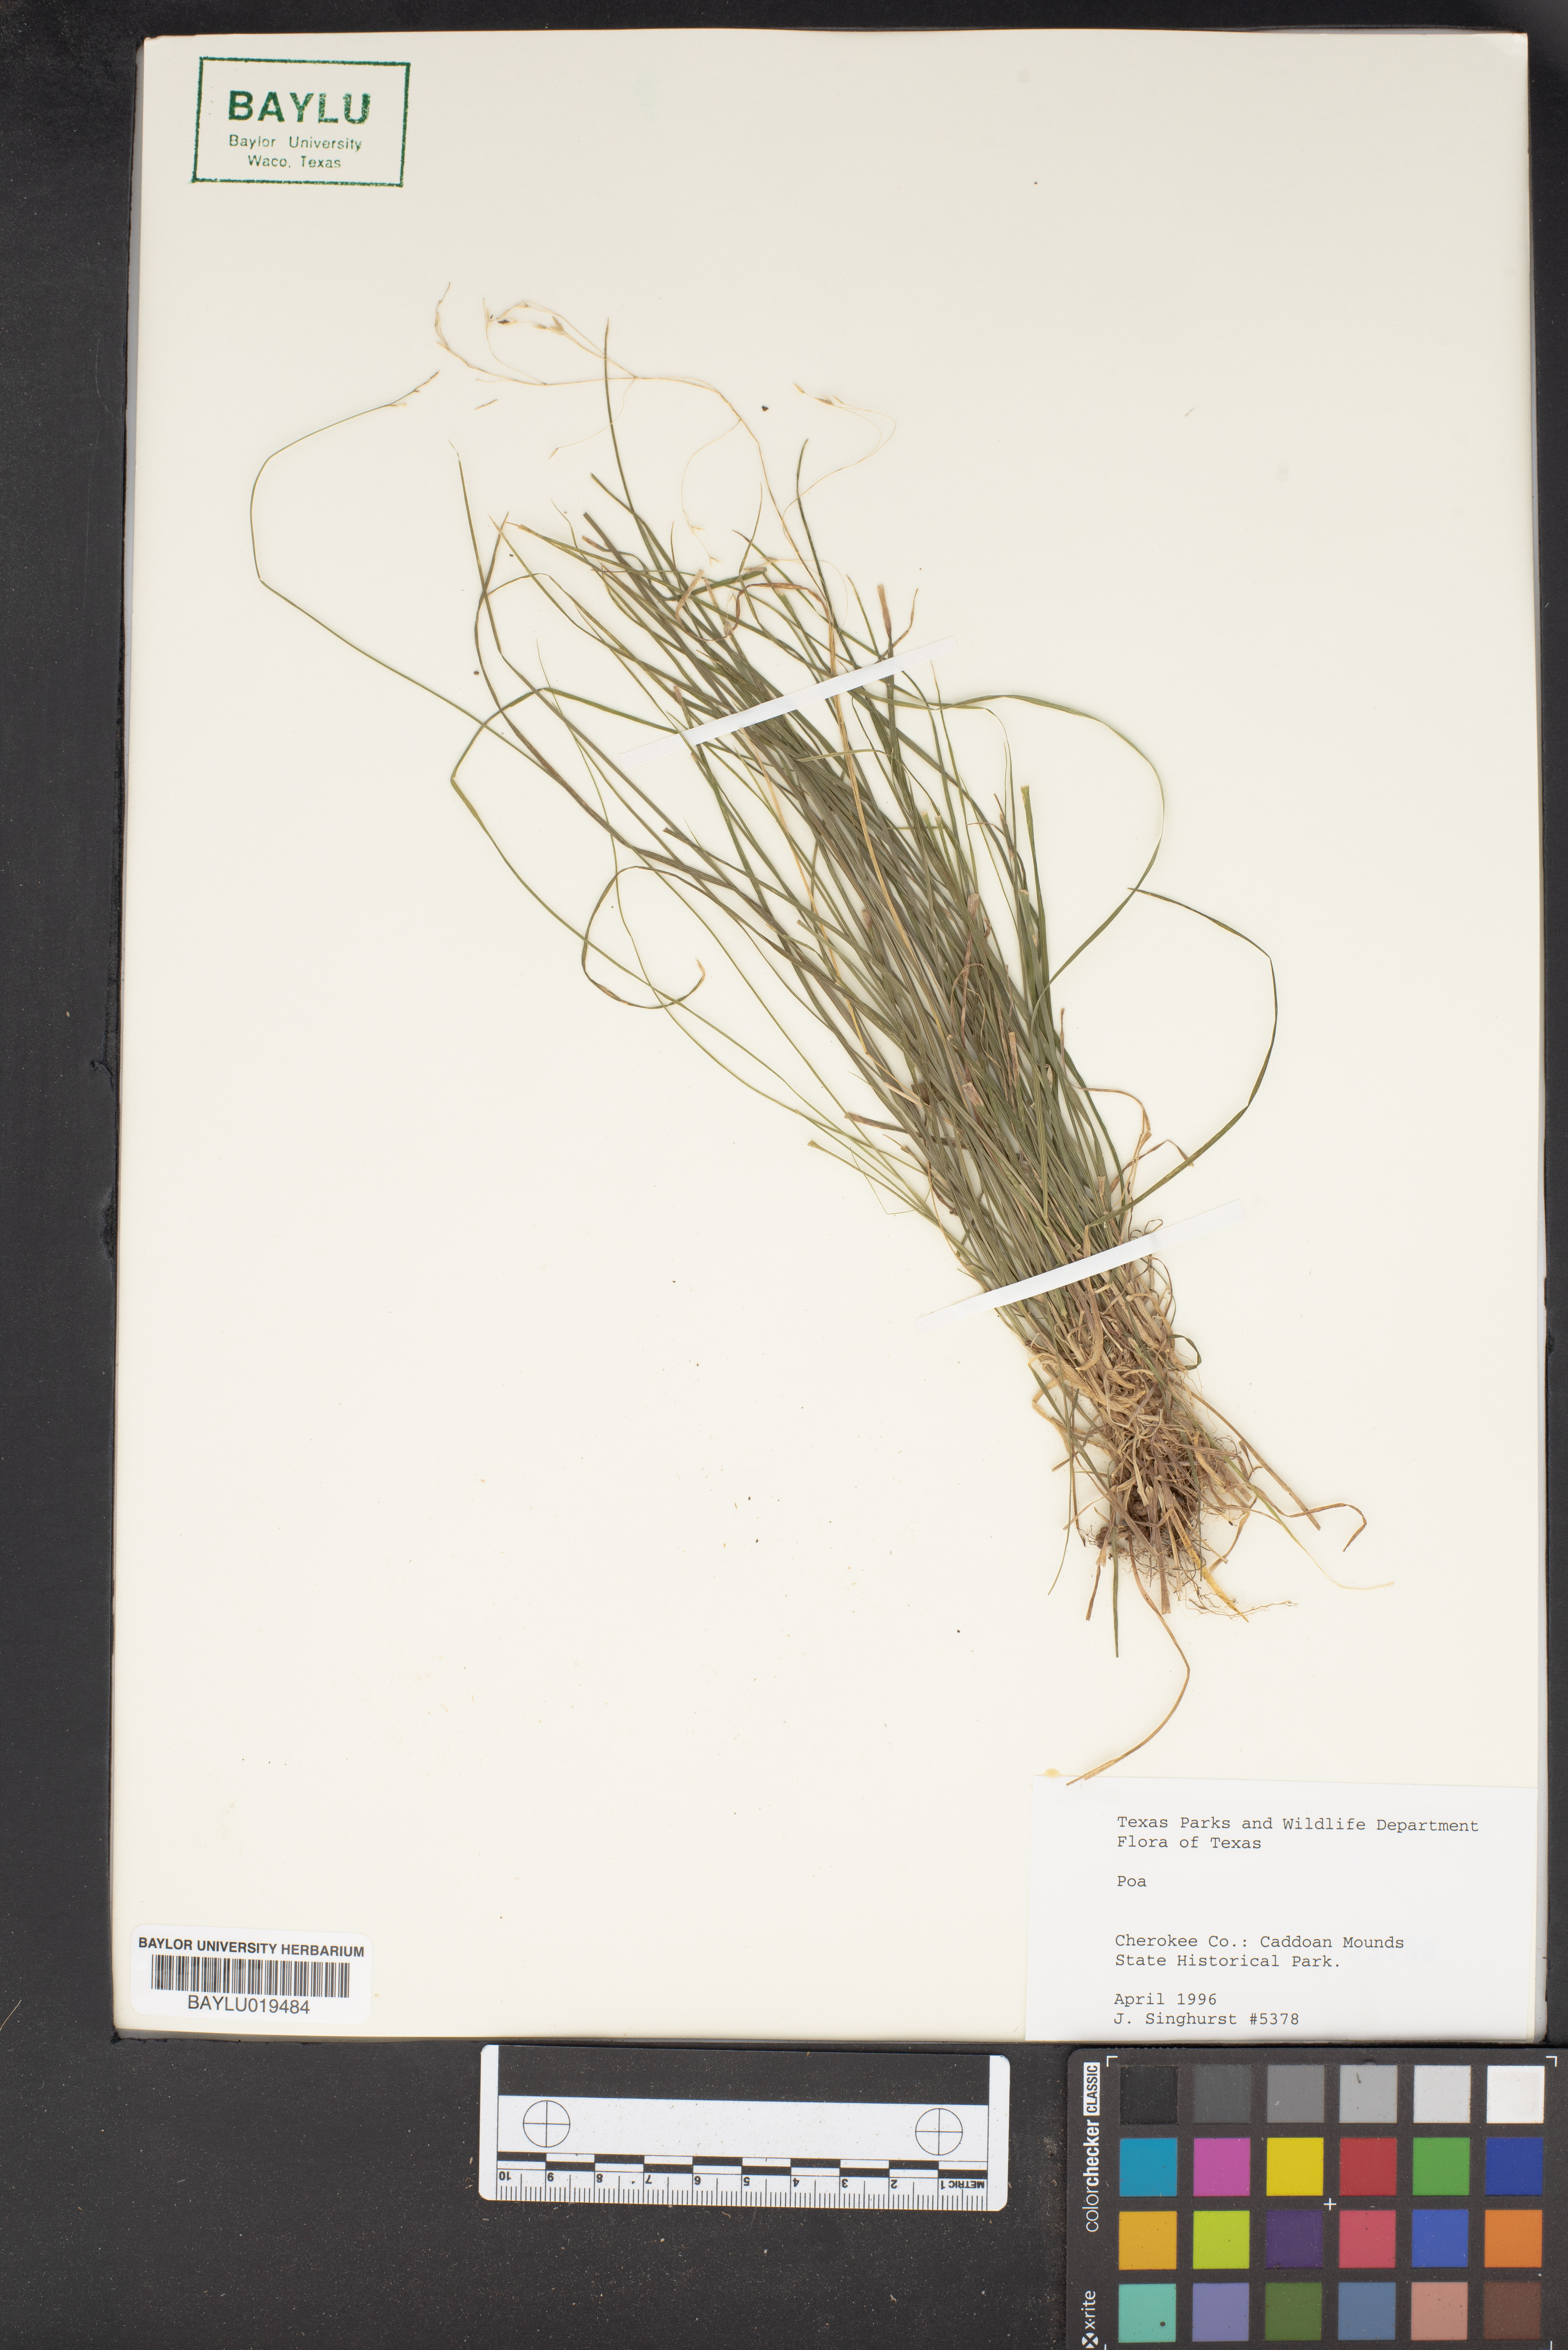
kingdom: Plantae
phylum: Tracheophyta
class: Liliopsida
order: Poales
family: Poaceae
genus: Poa
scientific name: Poa
